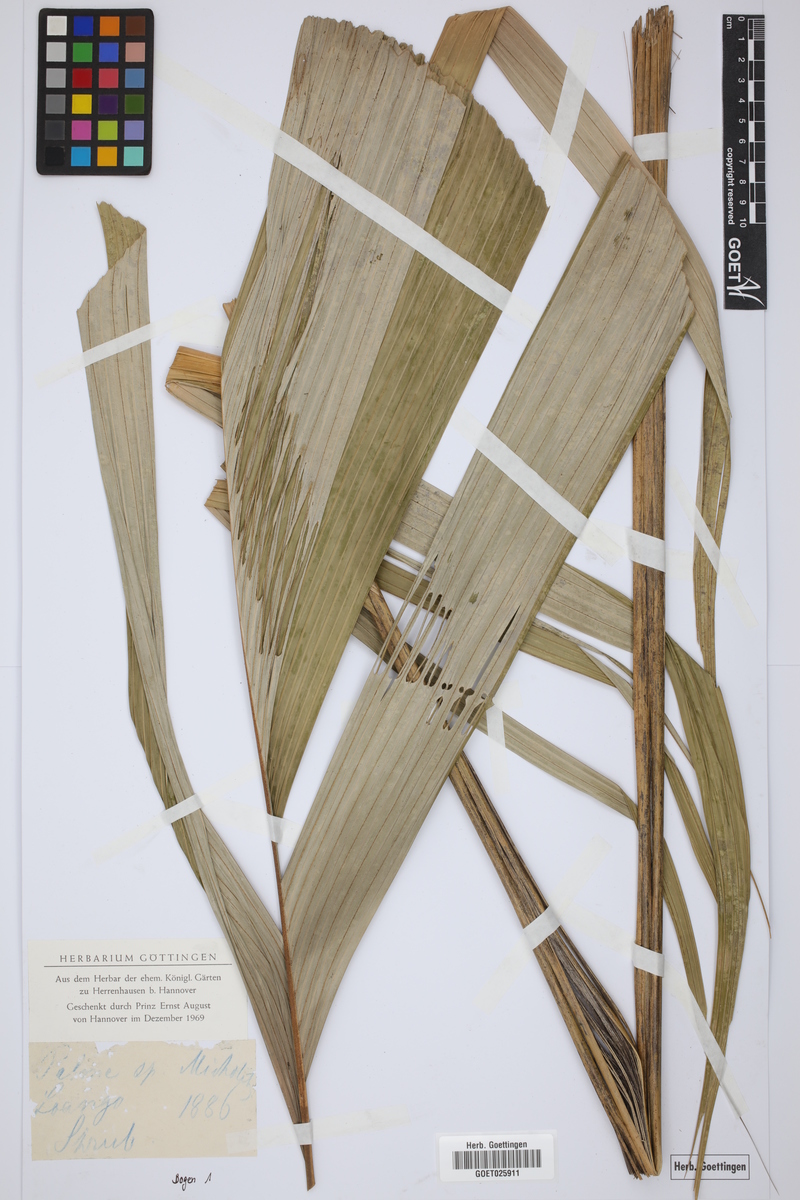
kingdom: Plantae
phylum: Tracheophyta
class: Liliopsida
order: Arecales
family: Arecaceae
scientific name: Arecaceae
